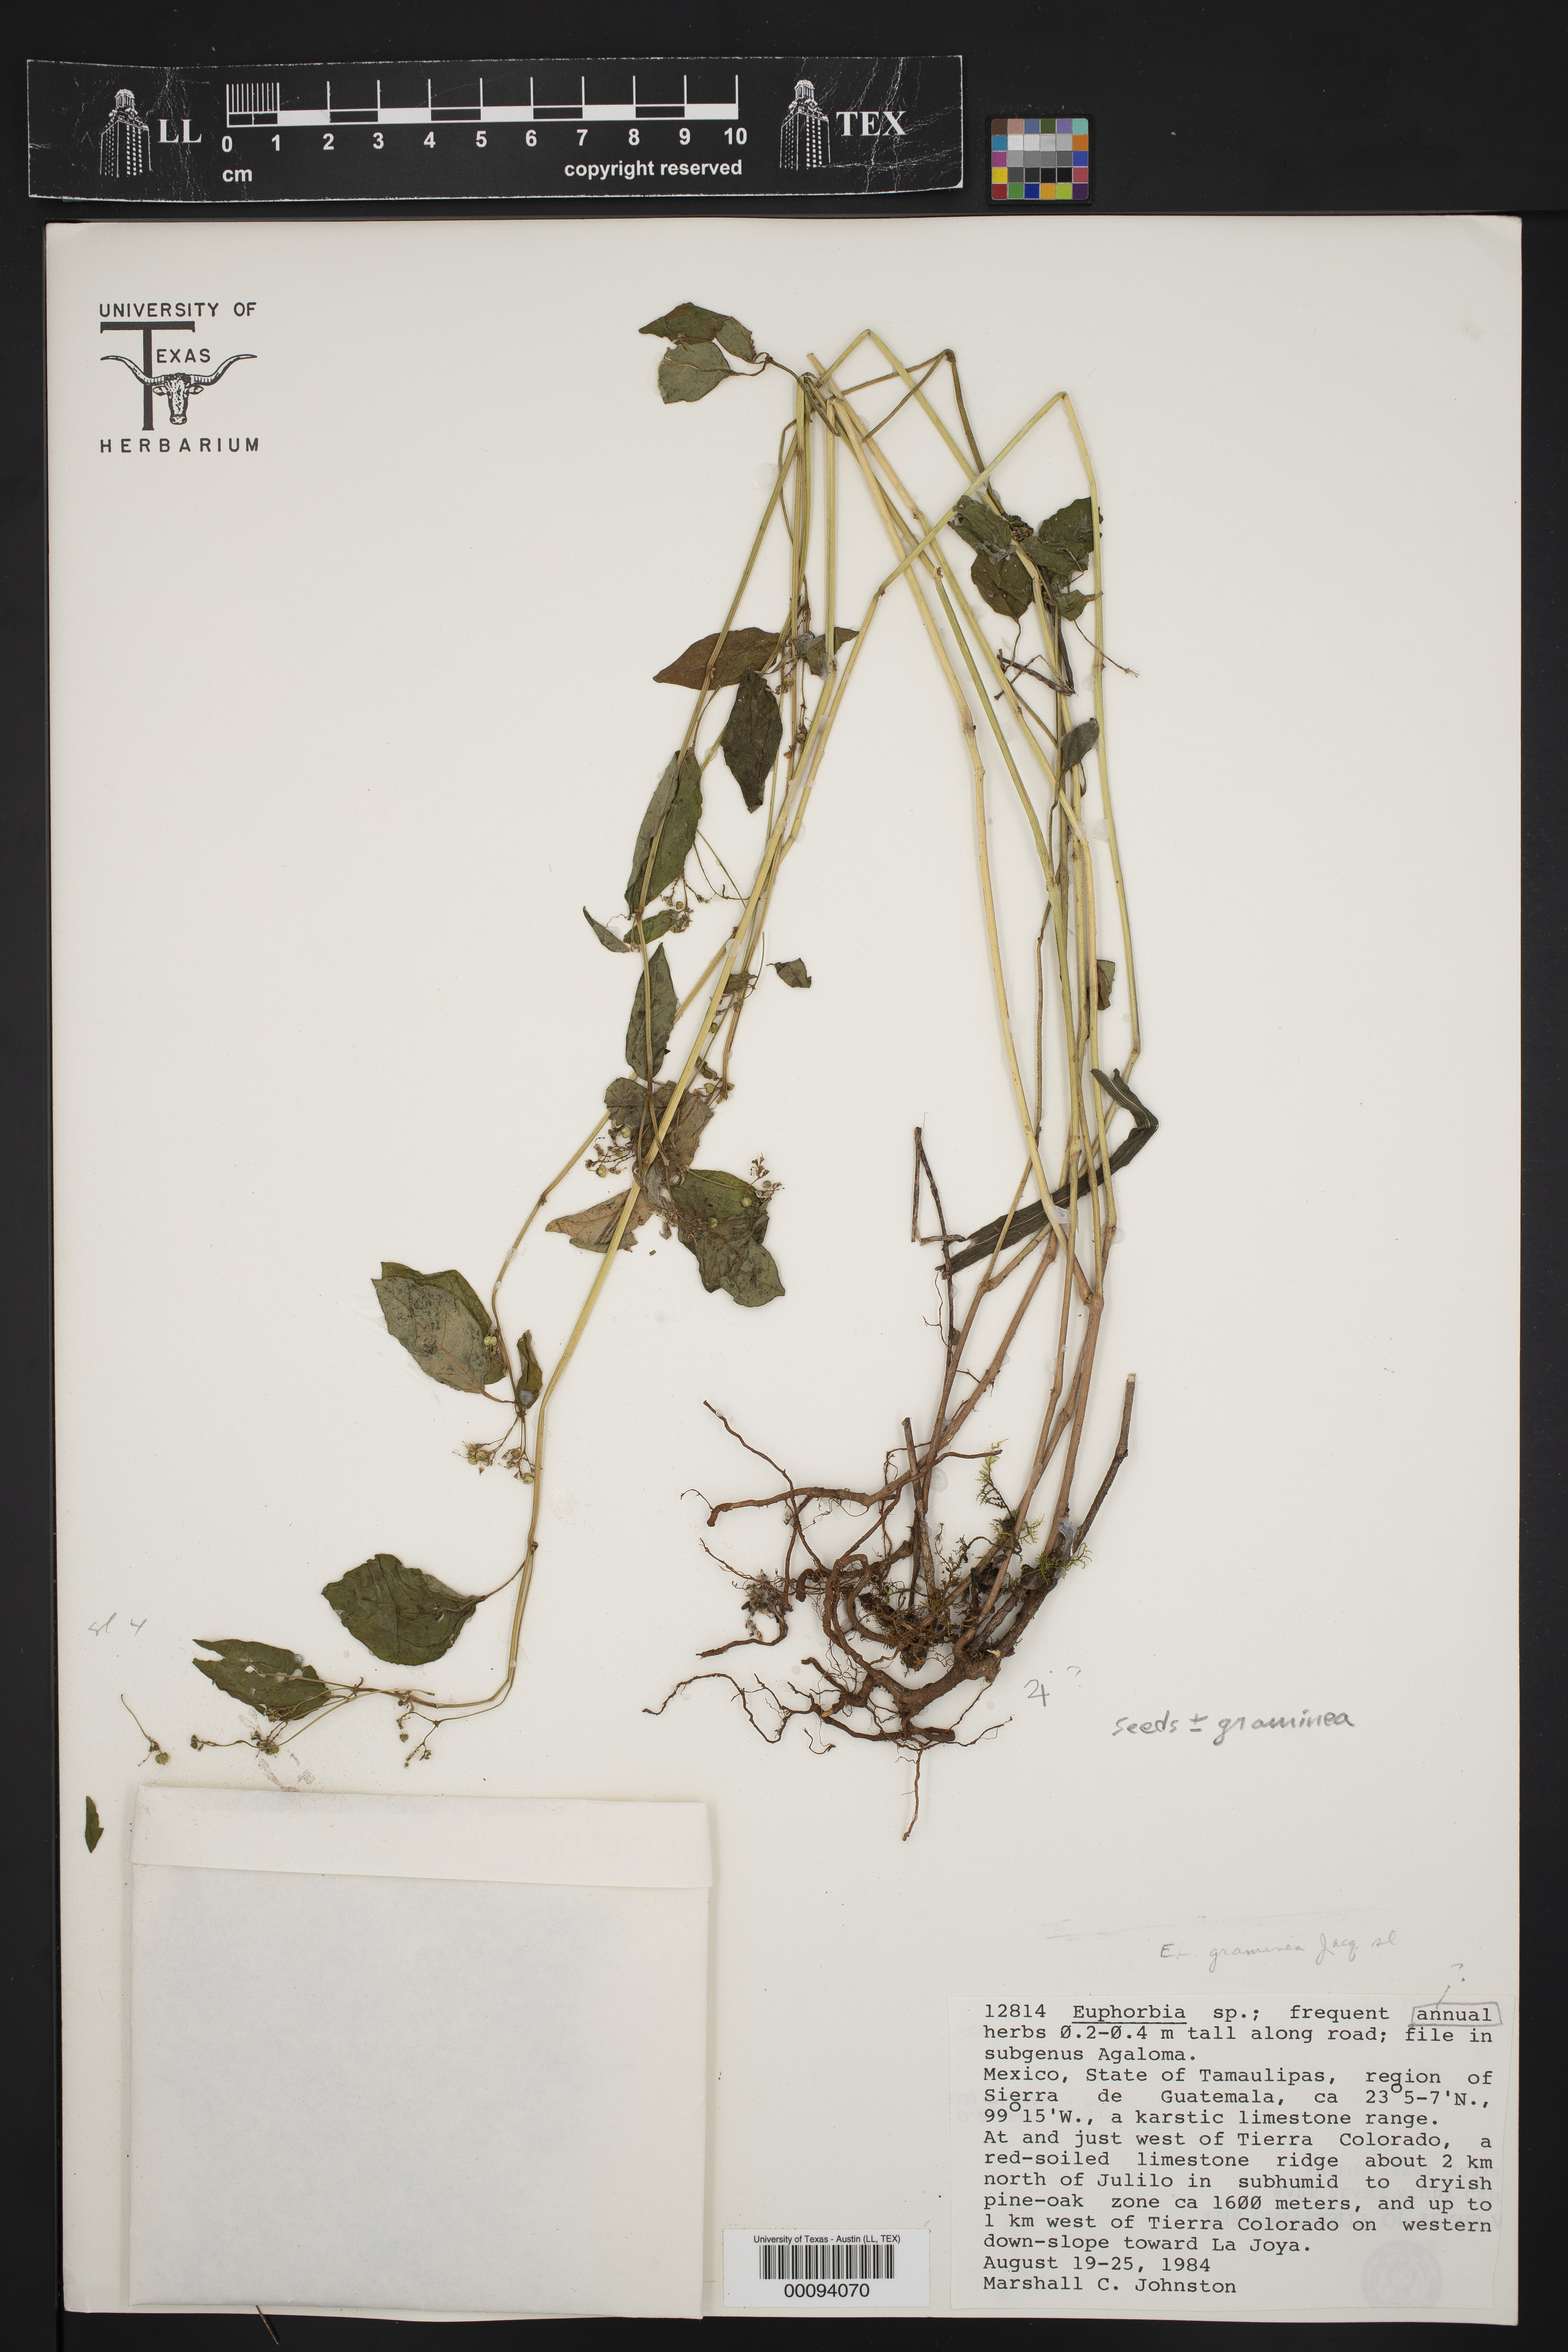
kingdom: Plantae
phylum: Tracheophyta
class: Magnoliopsida
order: Malpighiales
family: Euphorbiaceae
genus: Euphorbia
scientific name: Euphorbia xalapensis
